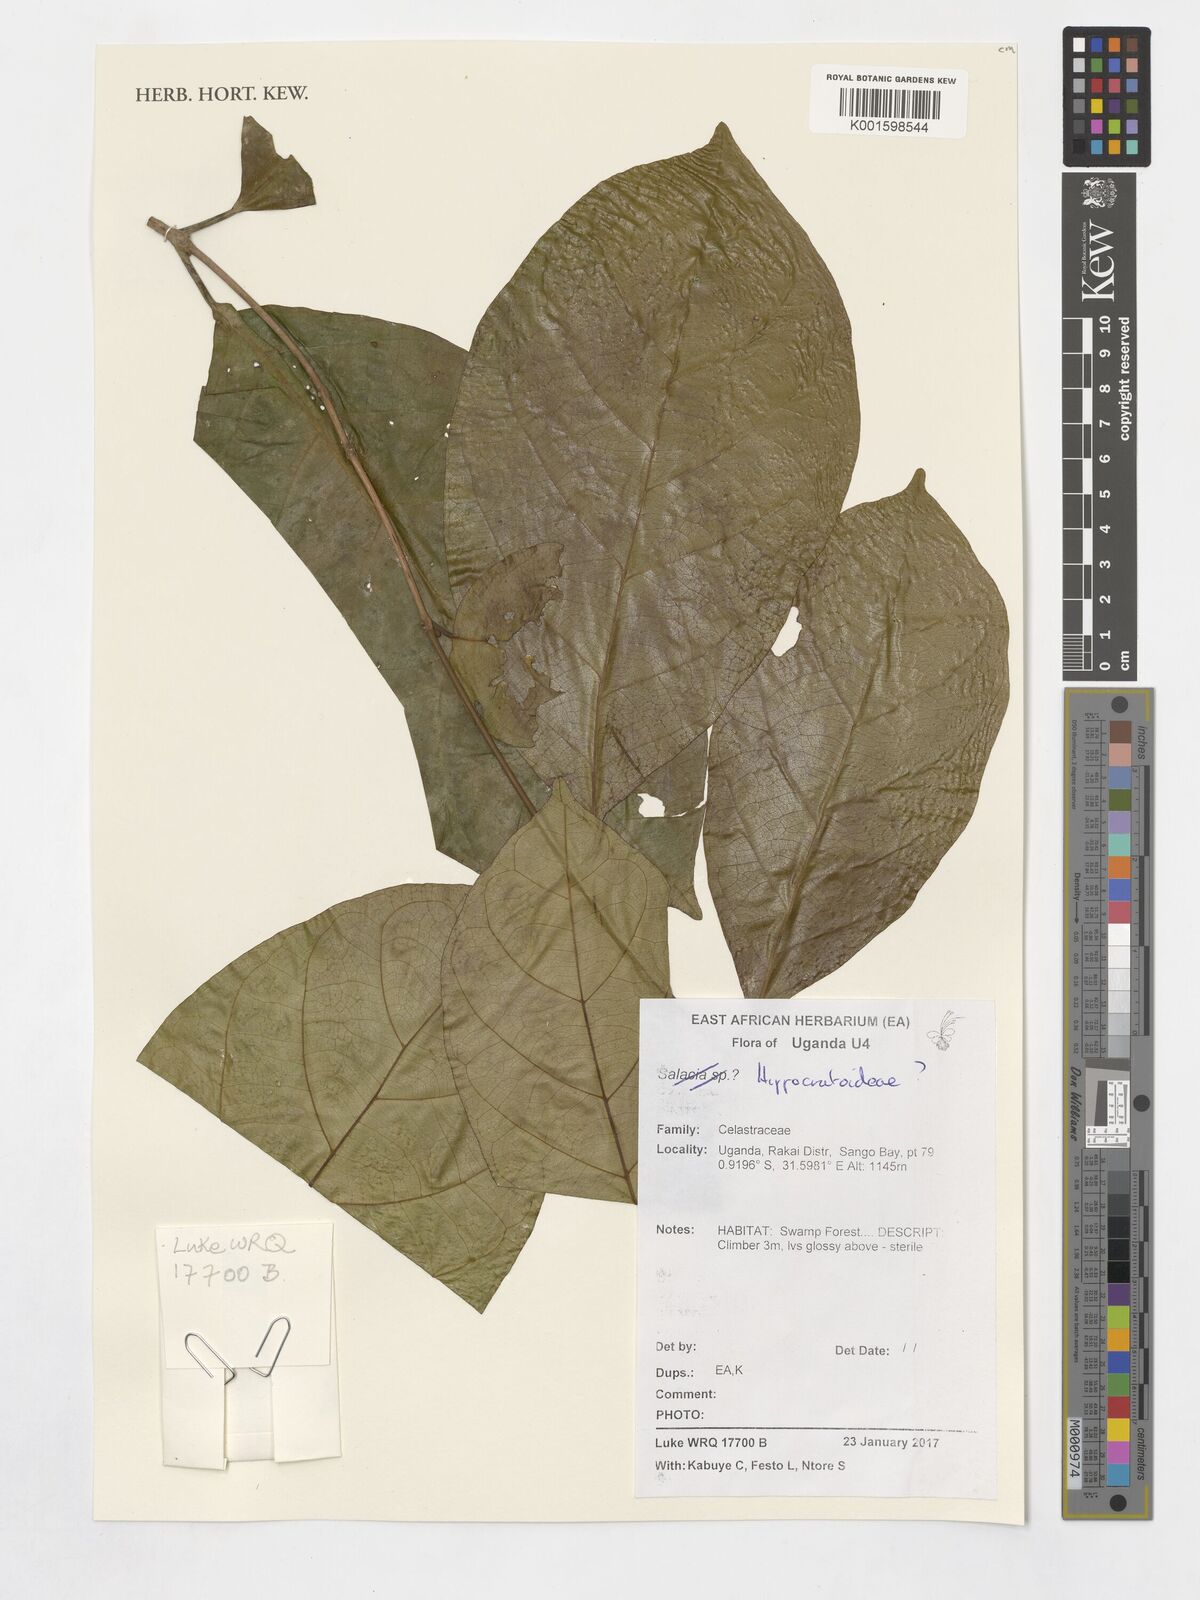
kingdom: Plantae
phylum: Tracheophyta
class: Magnoliopsida
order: Celastrales
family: Celastraceae
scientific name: Celastraceae
